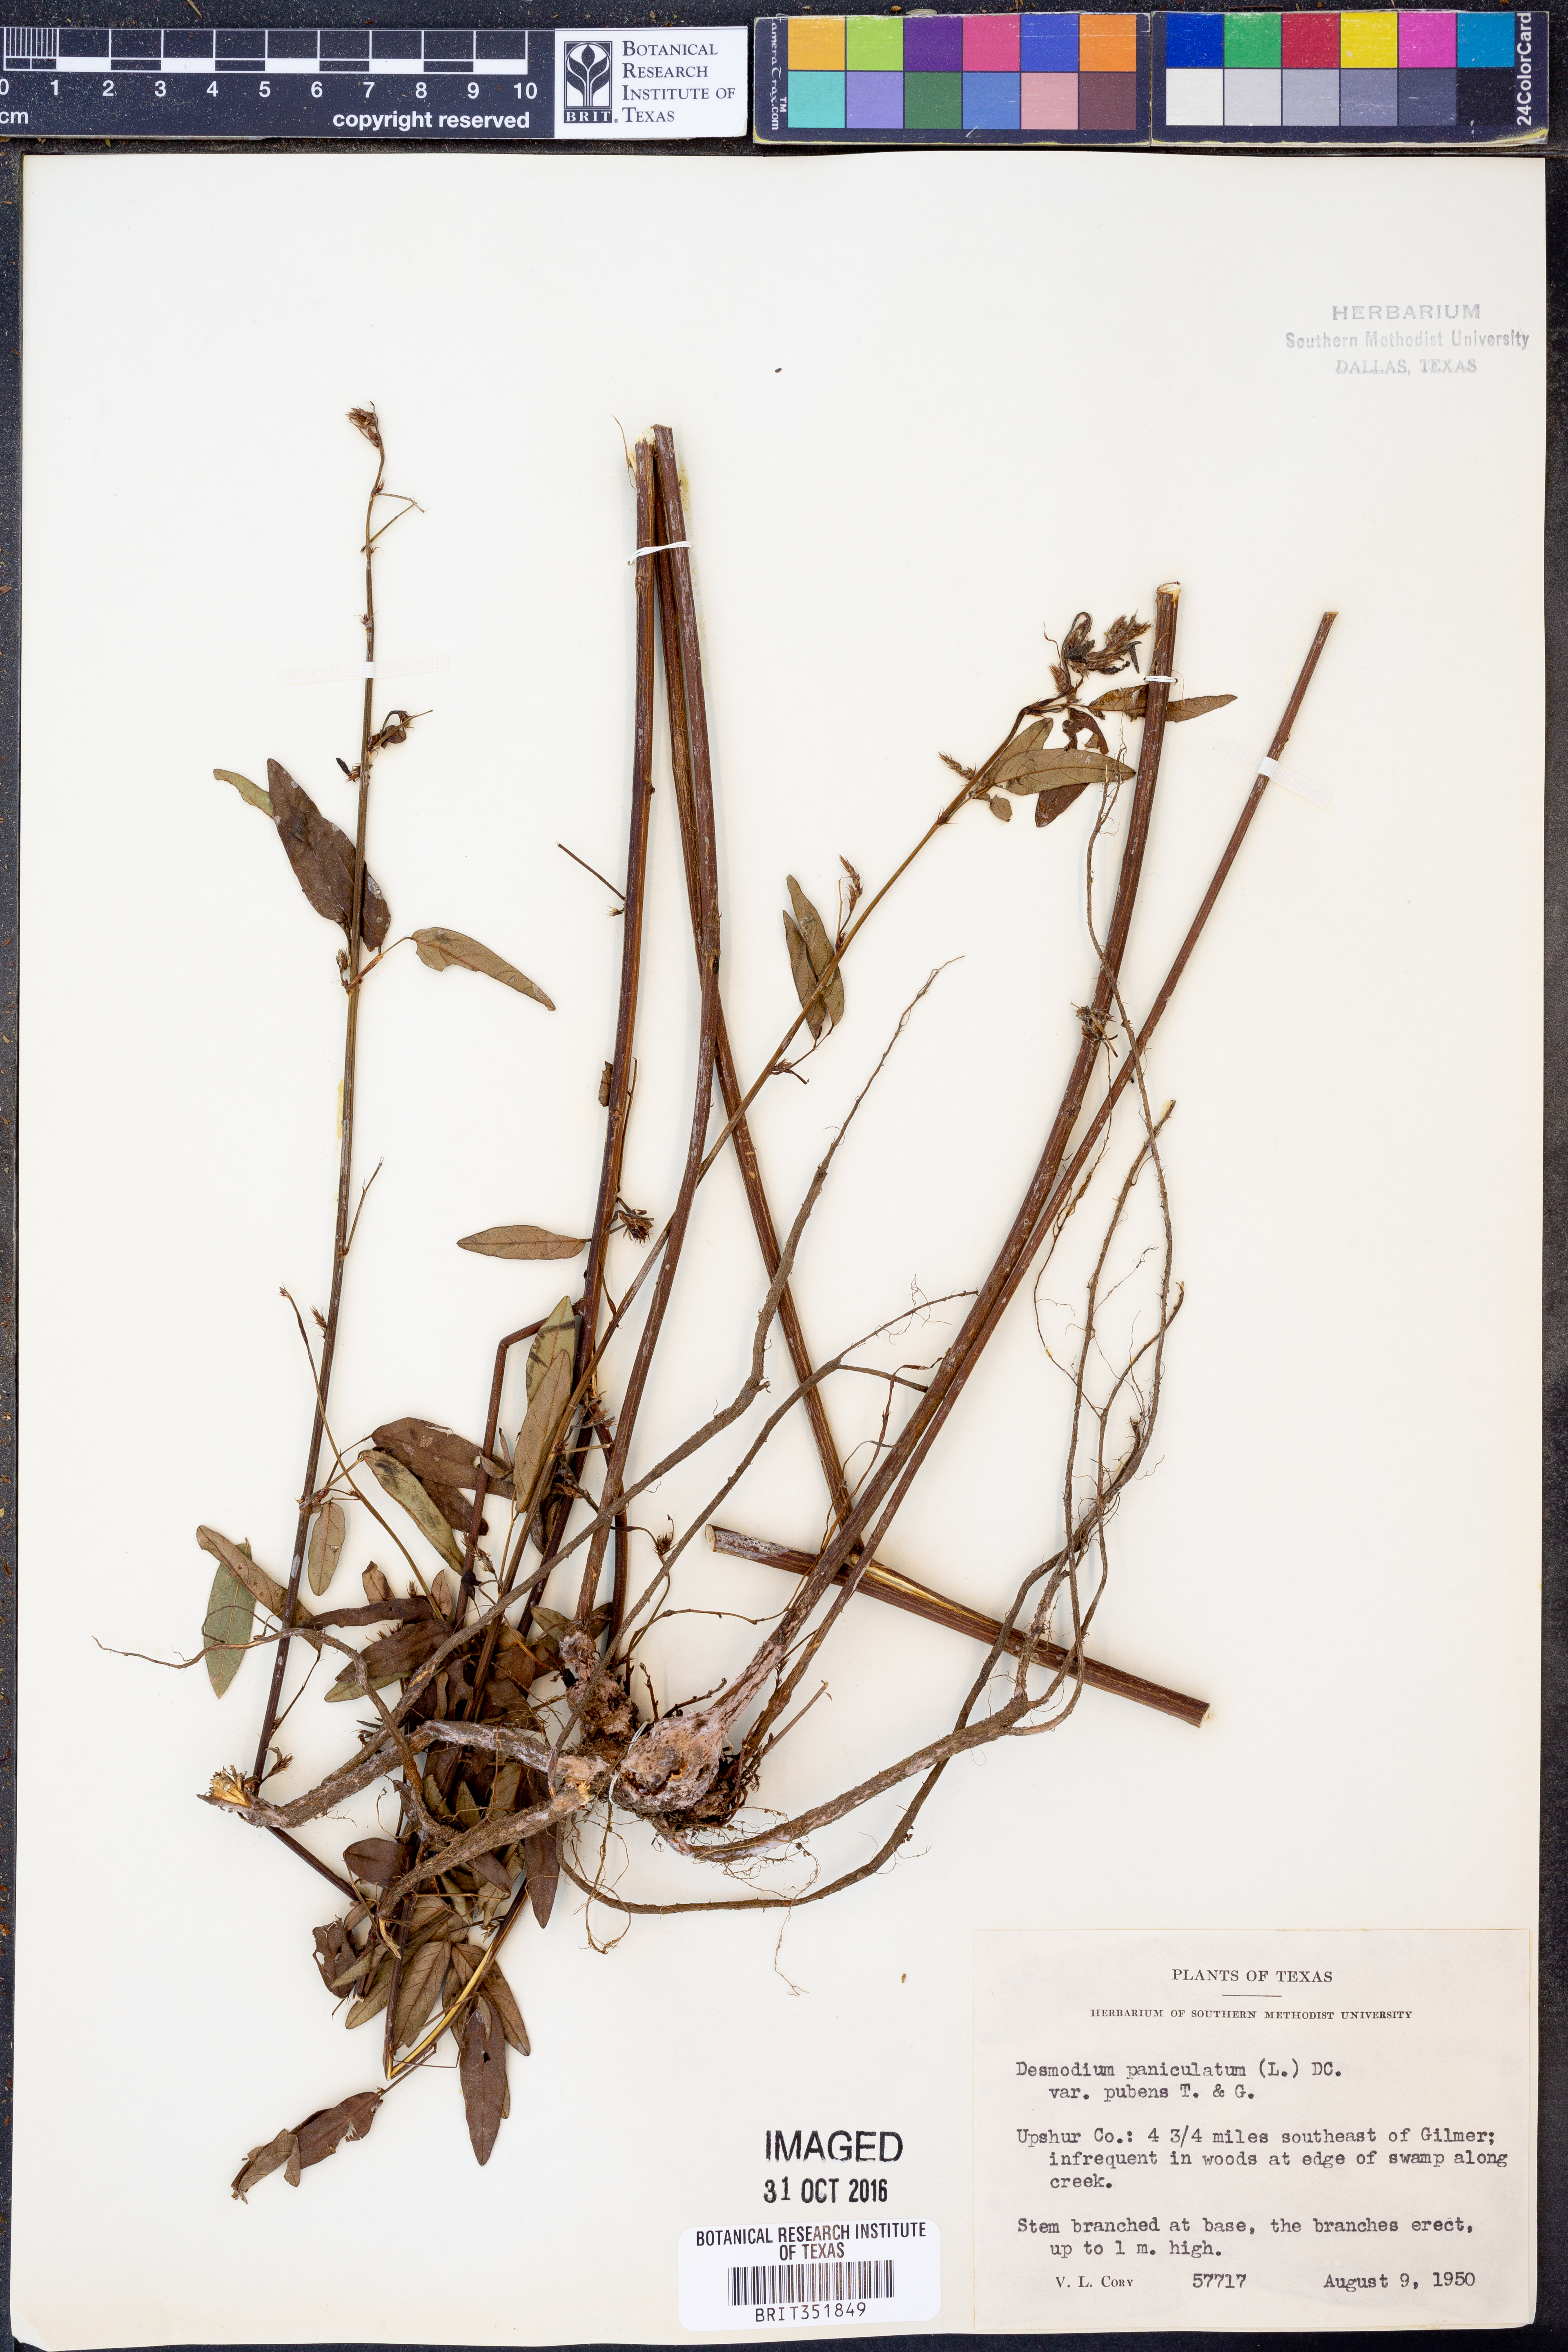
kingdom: Plantae
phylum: Tracheophyta
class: Magnoliopsida
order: Fabales
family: Fabaceae
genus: Desmodium
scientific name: Desmodium paniculatum
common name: Panicled tick-clover
